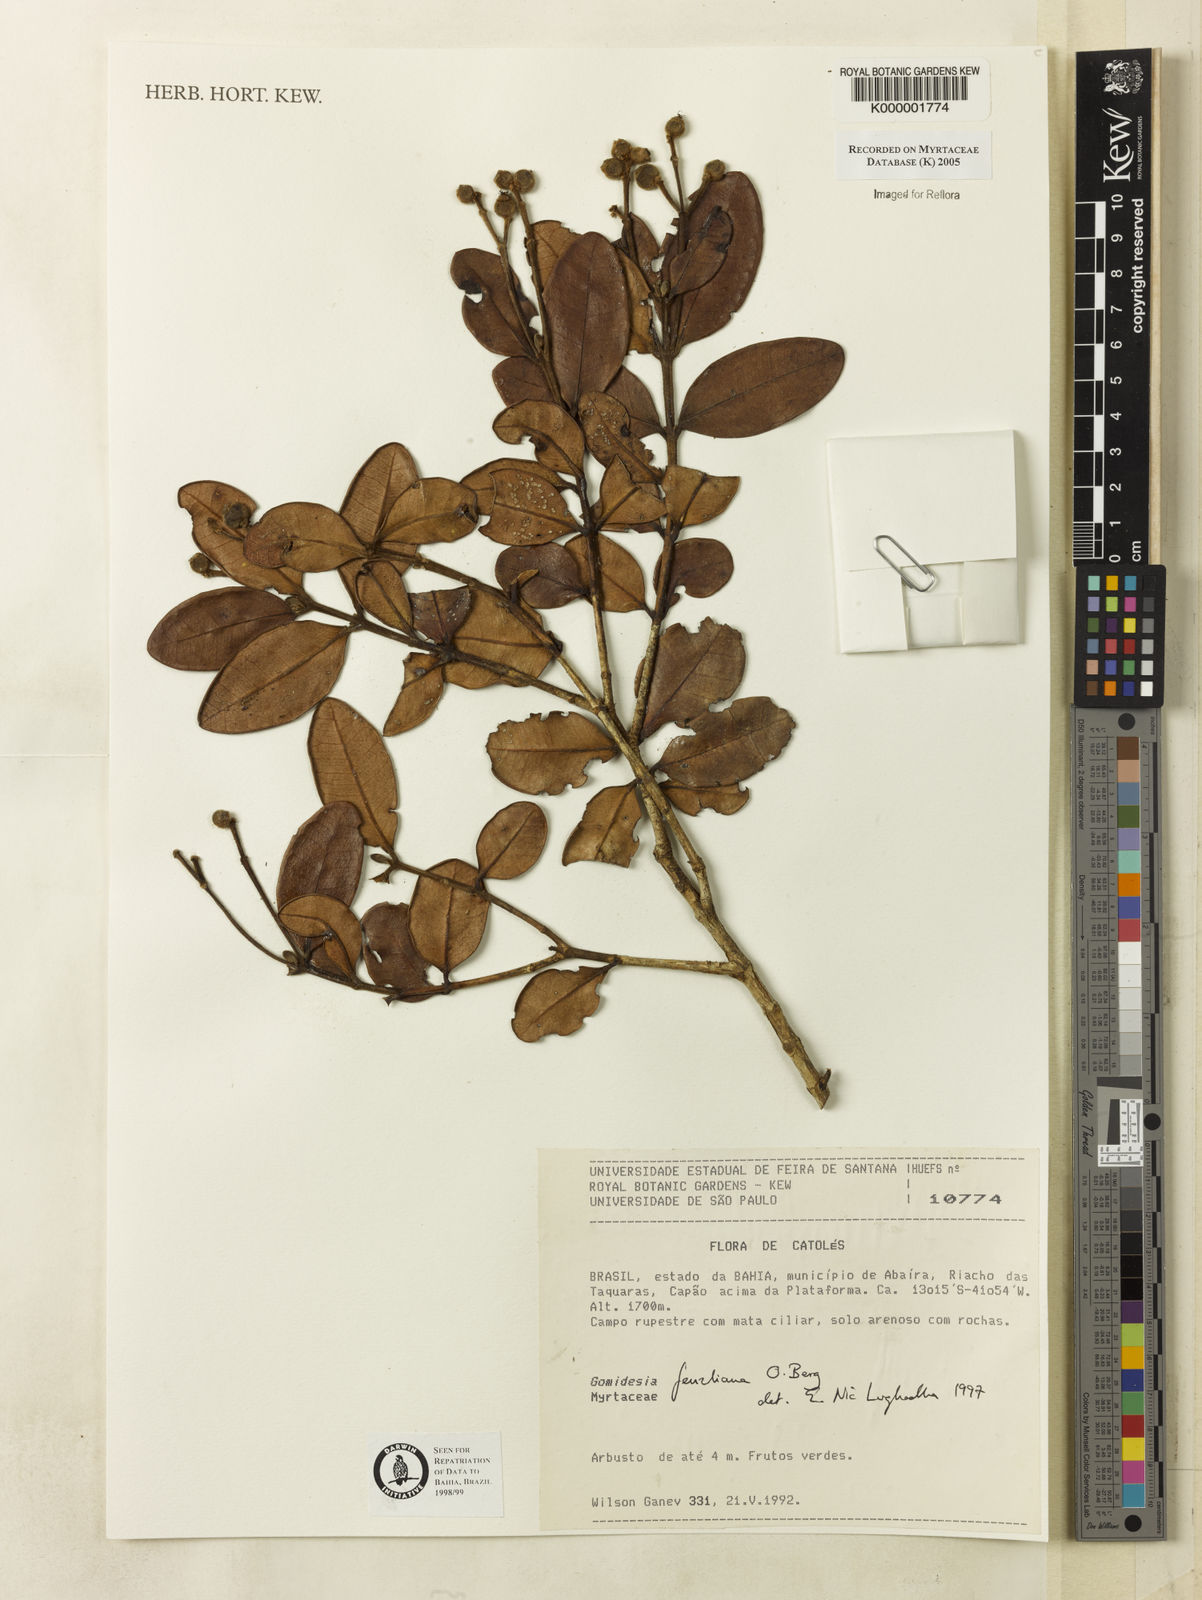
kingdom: Plantae
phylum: Tracheophyta
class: Magnoliopsida
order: Myrtales
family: Myrtaceae
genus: Myrcia
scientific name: Myrcia ilheosensis
